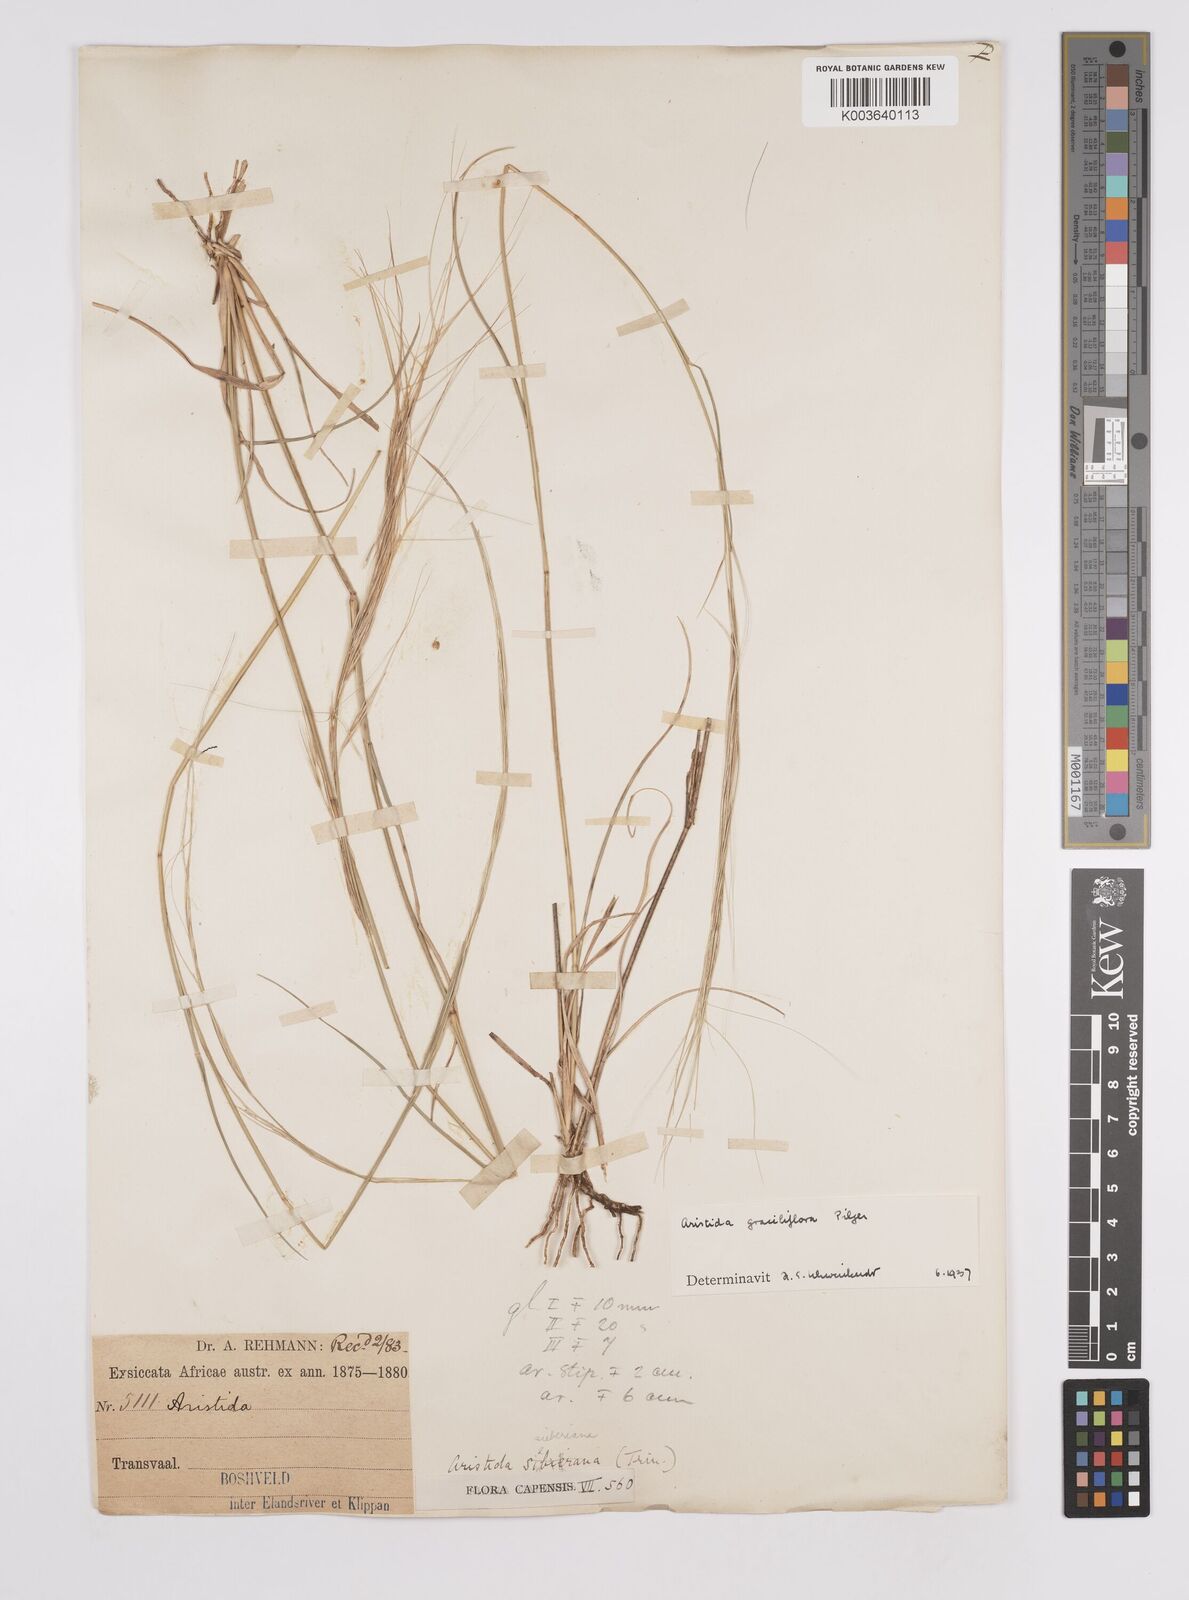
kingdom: Plantae
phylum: Tracheophyta
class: Liliopsida
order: Poales
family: Poaceae
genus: Aristida
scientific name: Aristida stipitata
